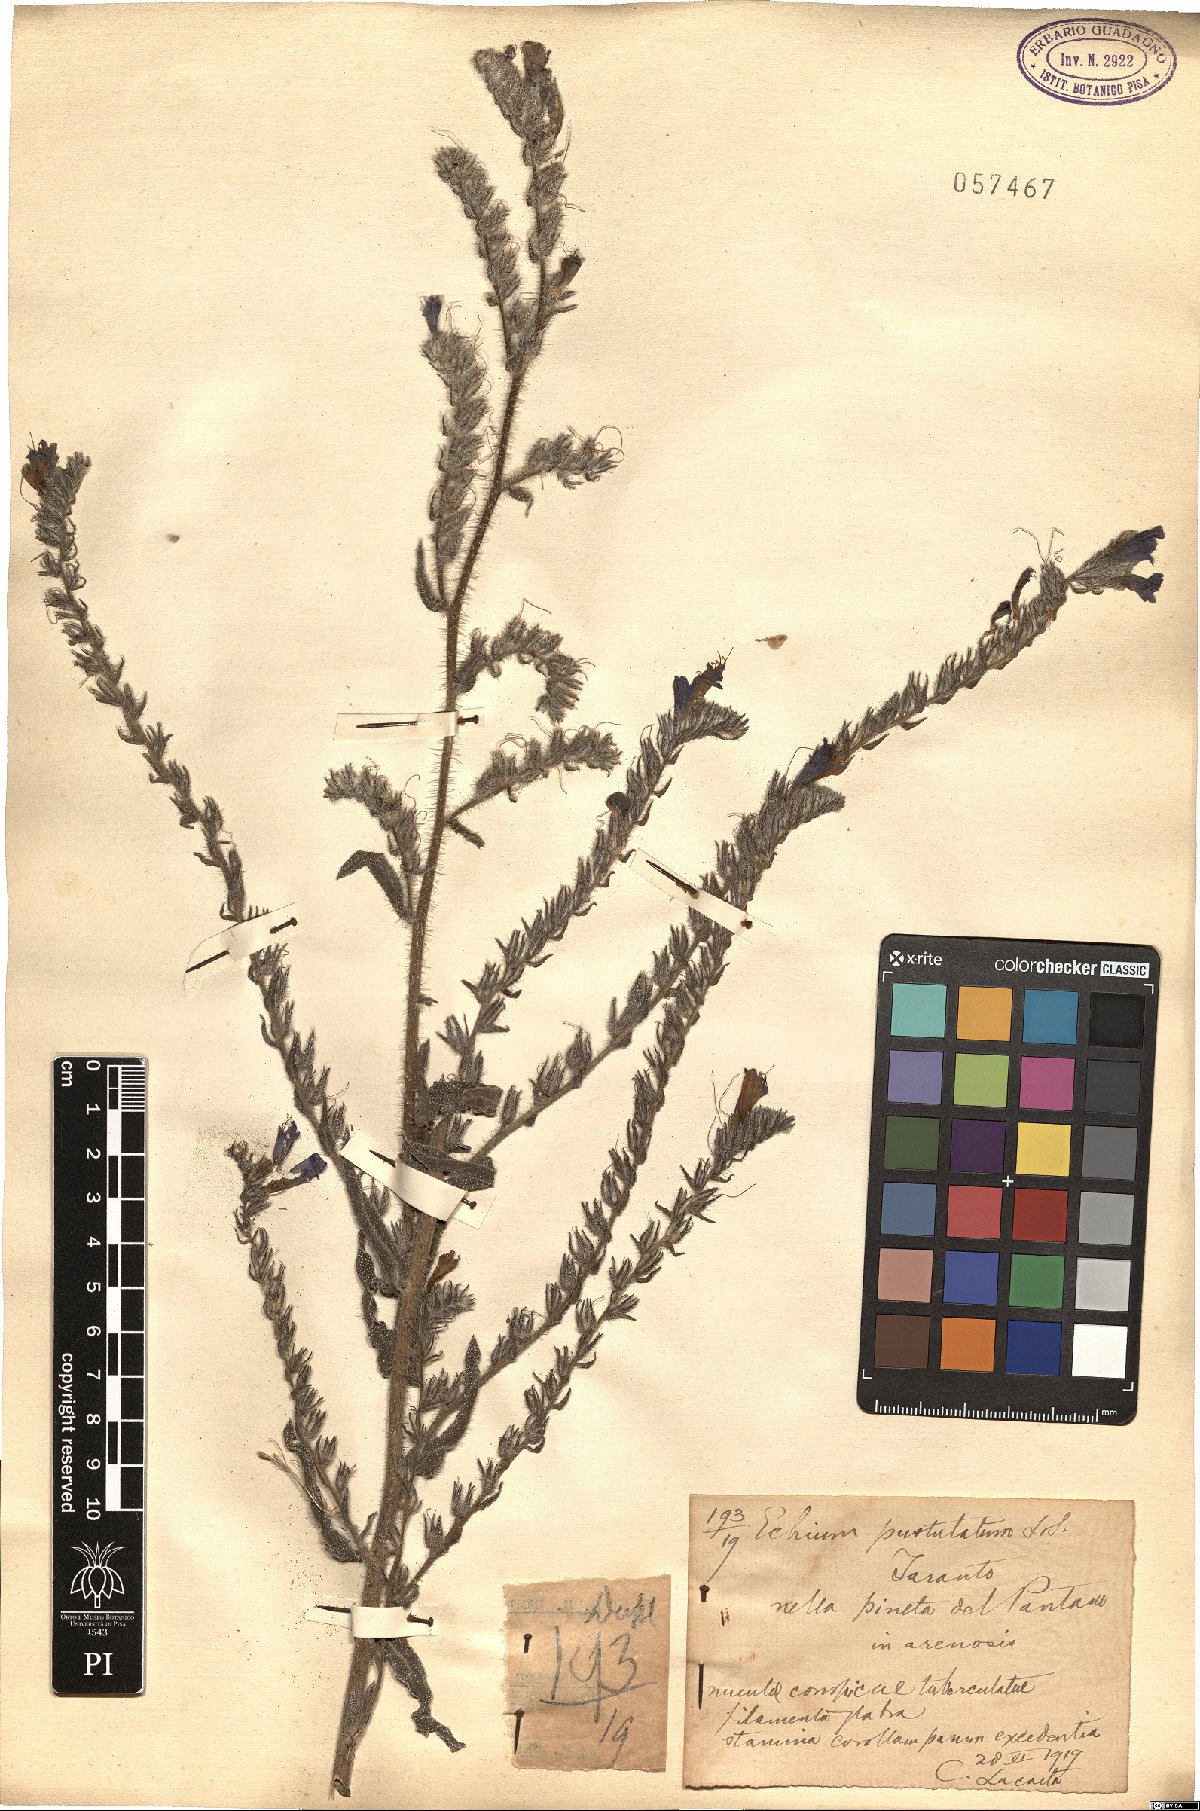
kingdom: Plantae
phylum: Tracheophyta
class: Magnoliopsida
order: Boraginales
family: Boraginaceae
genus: Echium
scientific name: Echium vulgare
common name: Common viper's bugloss
